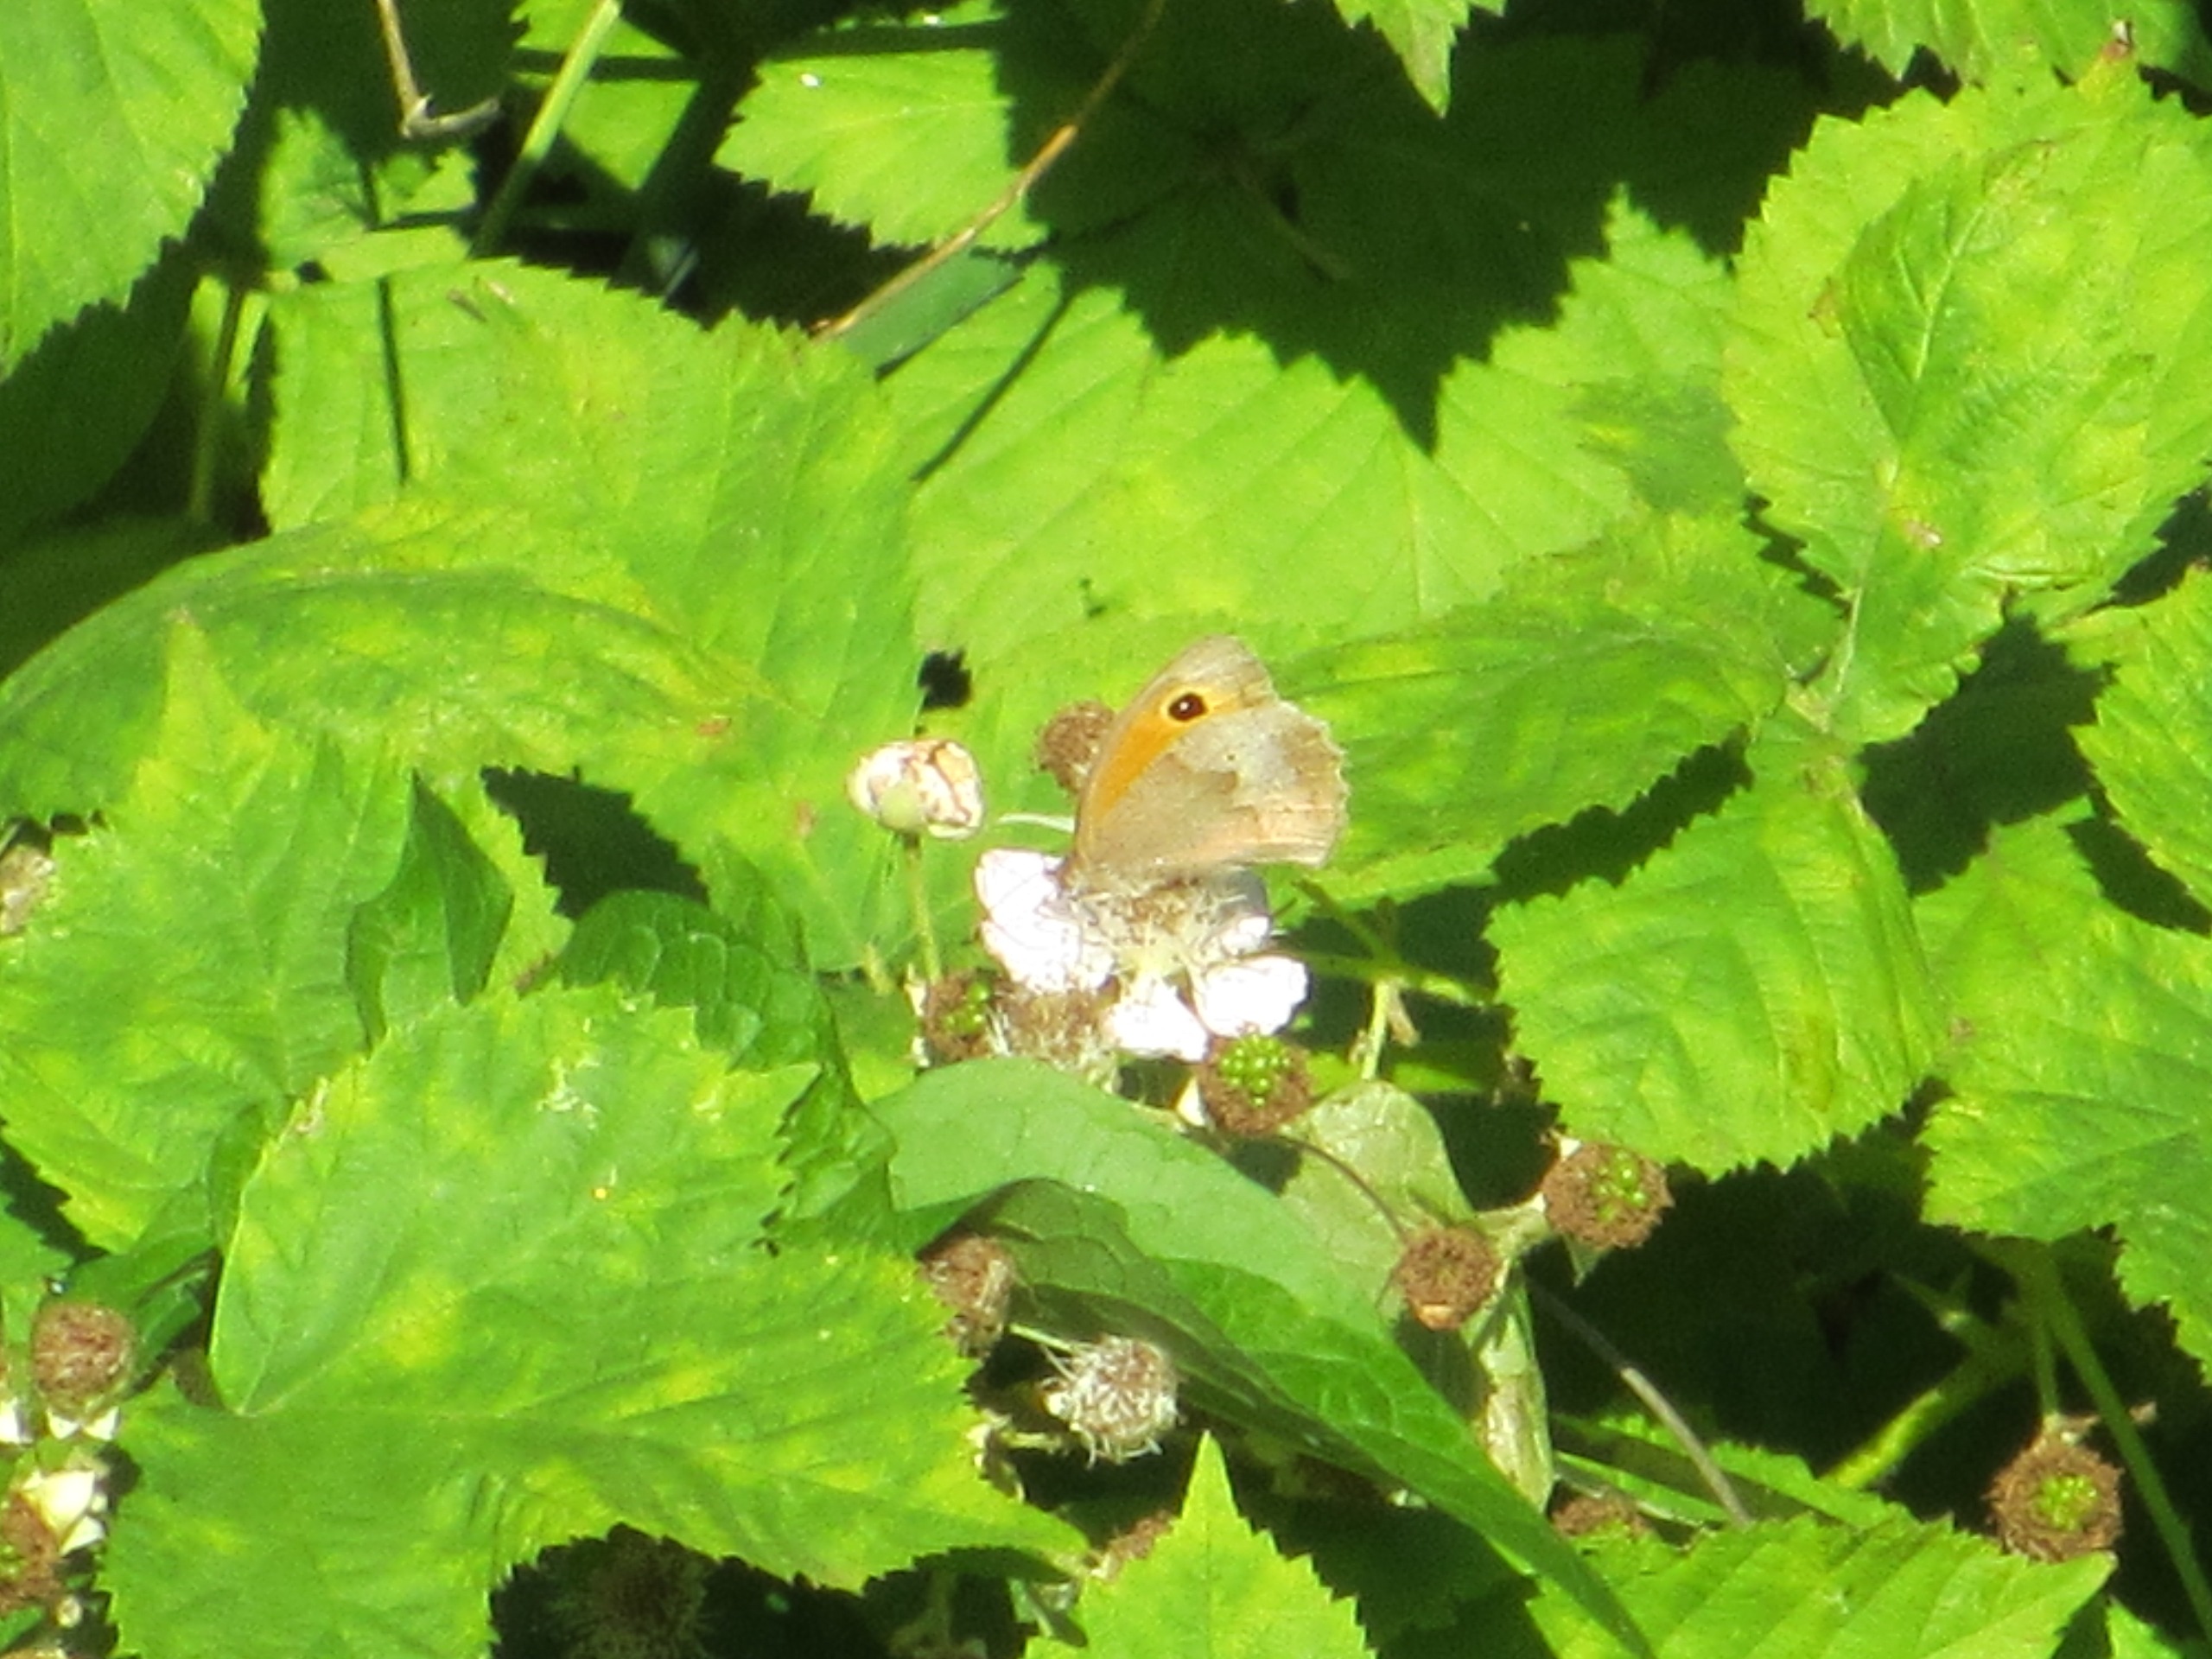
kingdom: Animalia
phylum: Arthropoda
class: Insecta
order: Lepidoptera
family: Nymphalidae
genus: Maniola
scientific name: Maniola jurtina
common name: Græsrandøje
